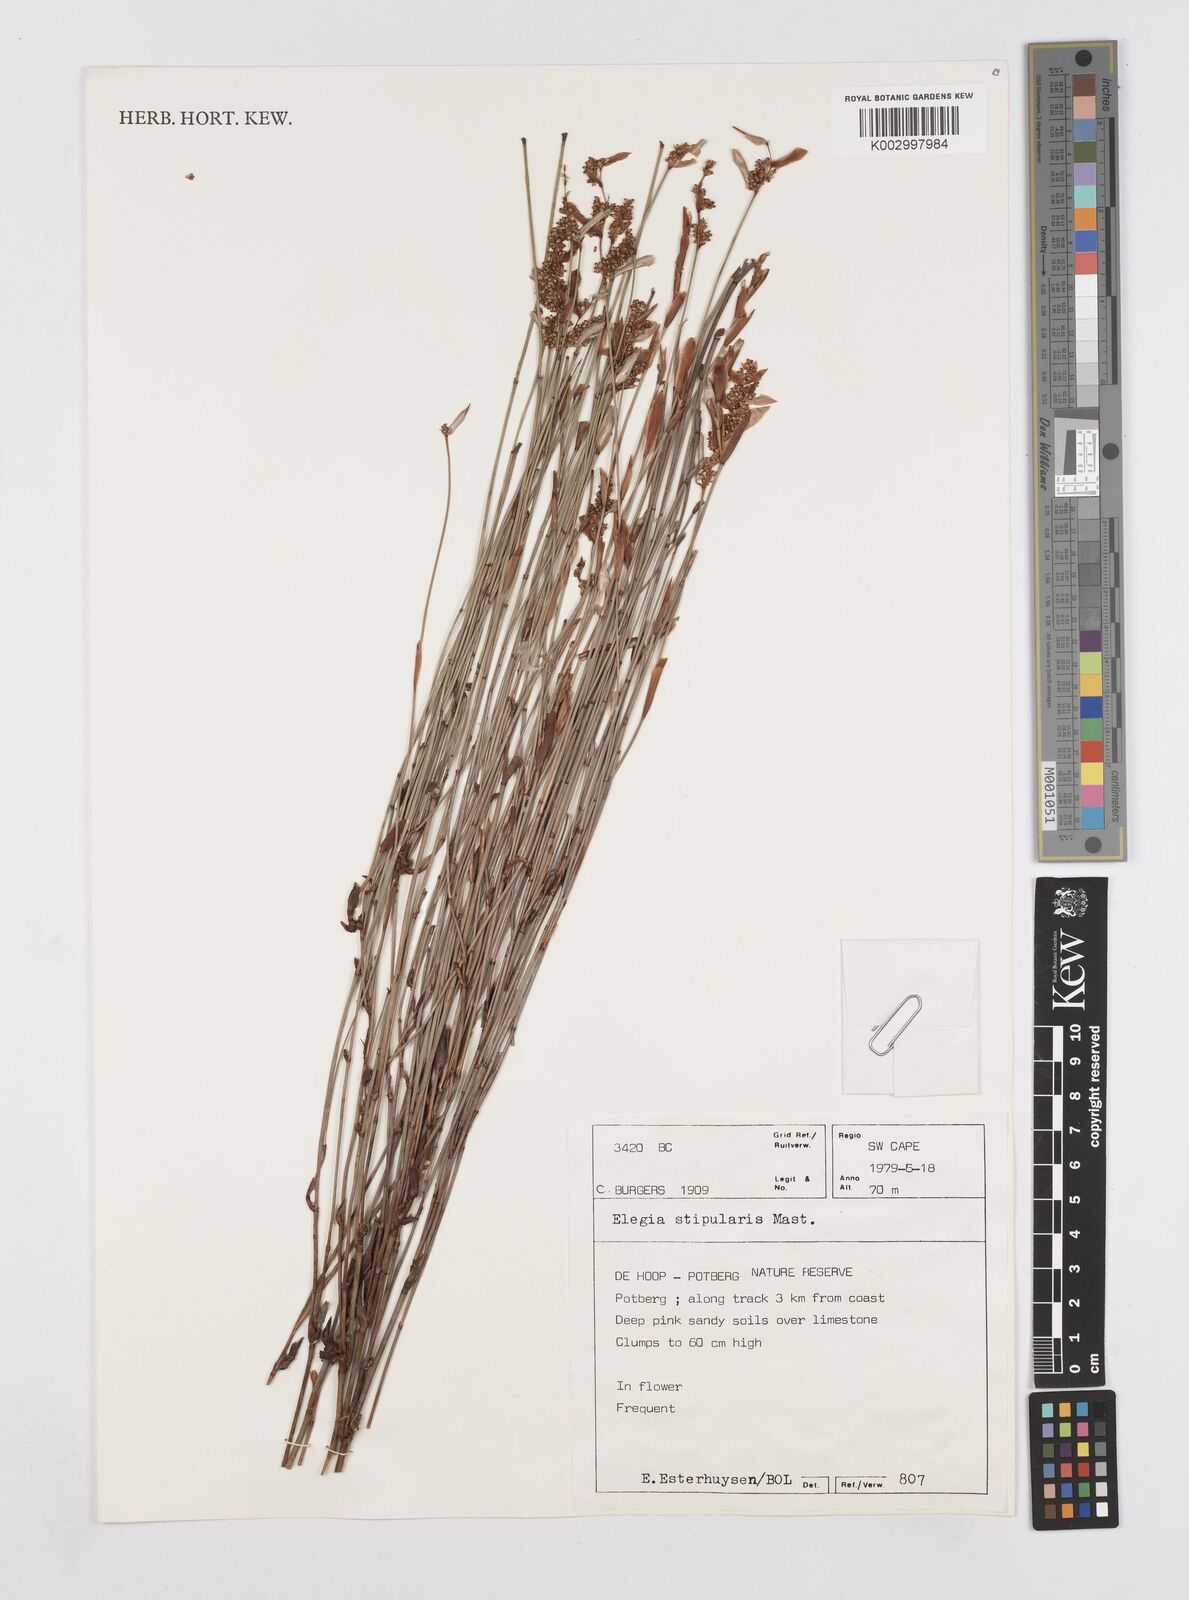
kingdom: Plantae
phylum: Tracheophyta
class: Liliopsida
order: Poales
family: Restionaceae
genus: Elegia
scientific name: Elegia stipularis
